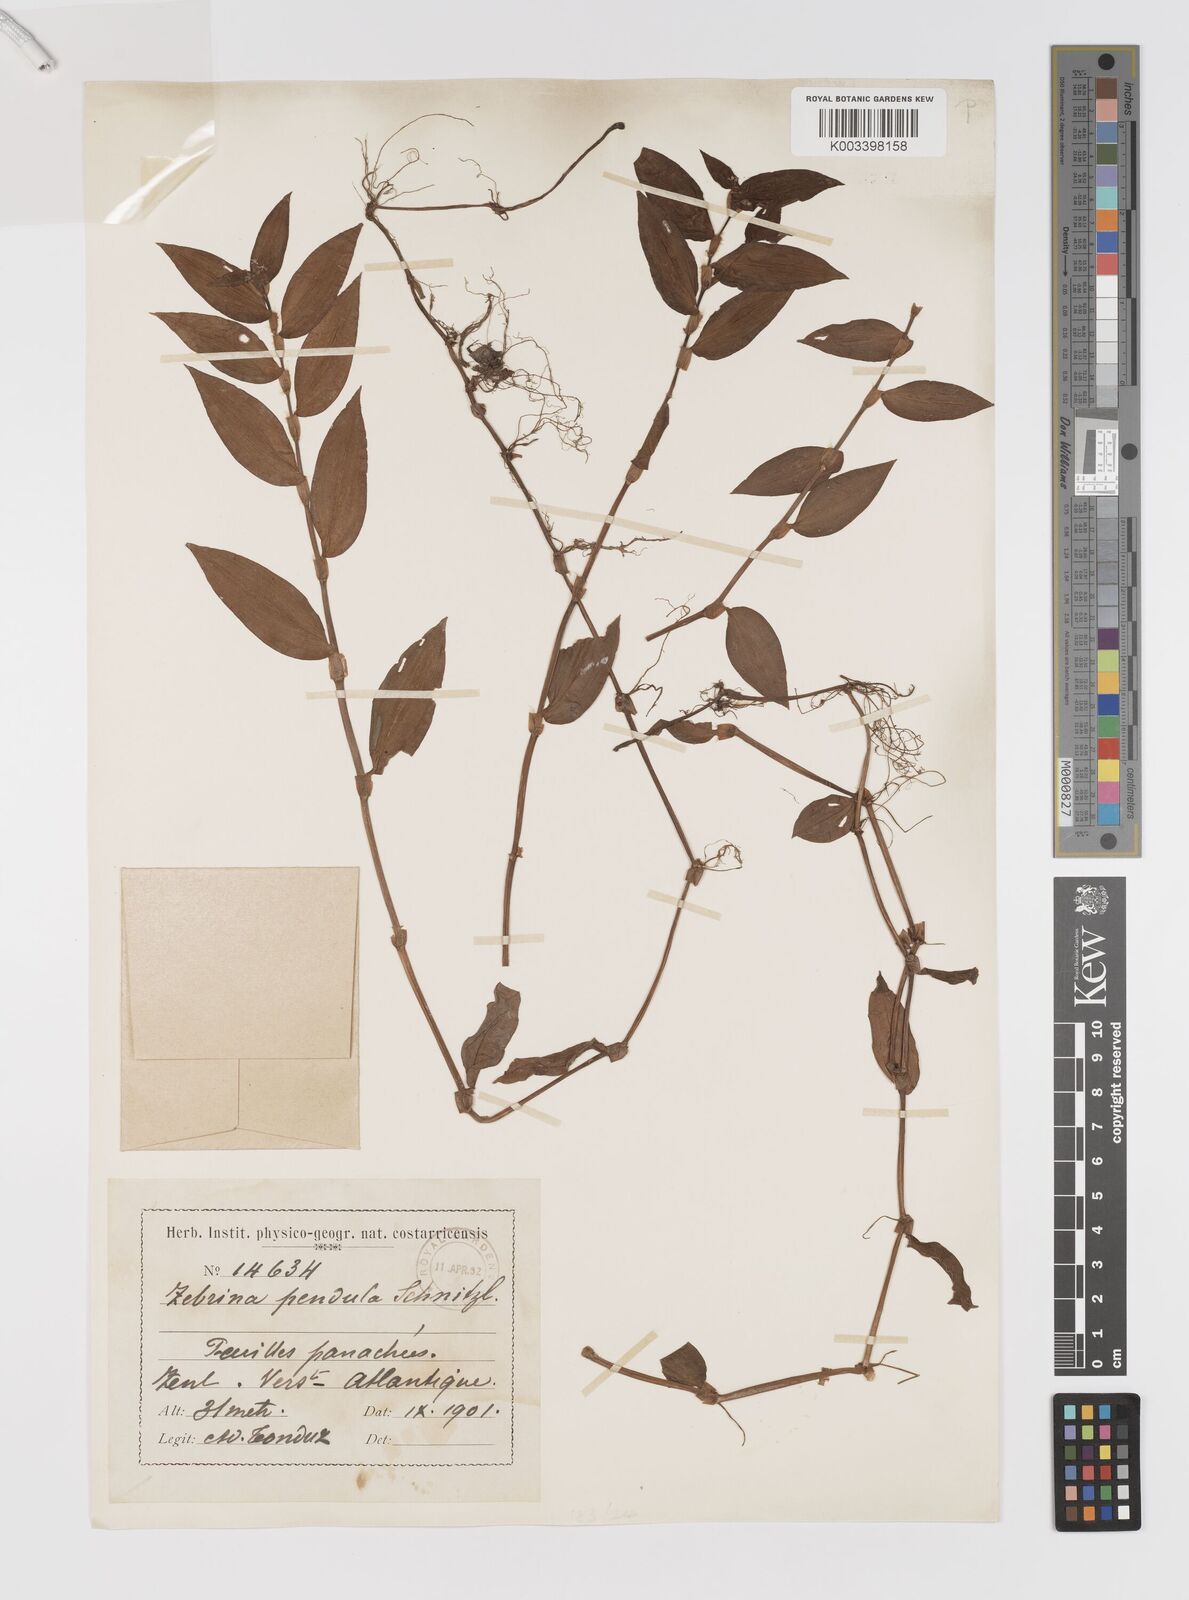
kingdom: Plantae
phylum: Tracheophyta
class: Liliopsida
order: Commelinales
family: Commelinaceae
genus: Tradescantia
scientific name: Tradescantia zebrina
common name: Inchplant
